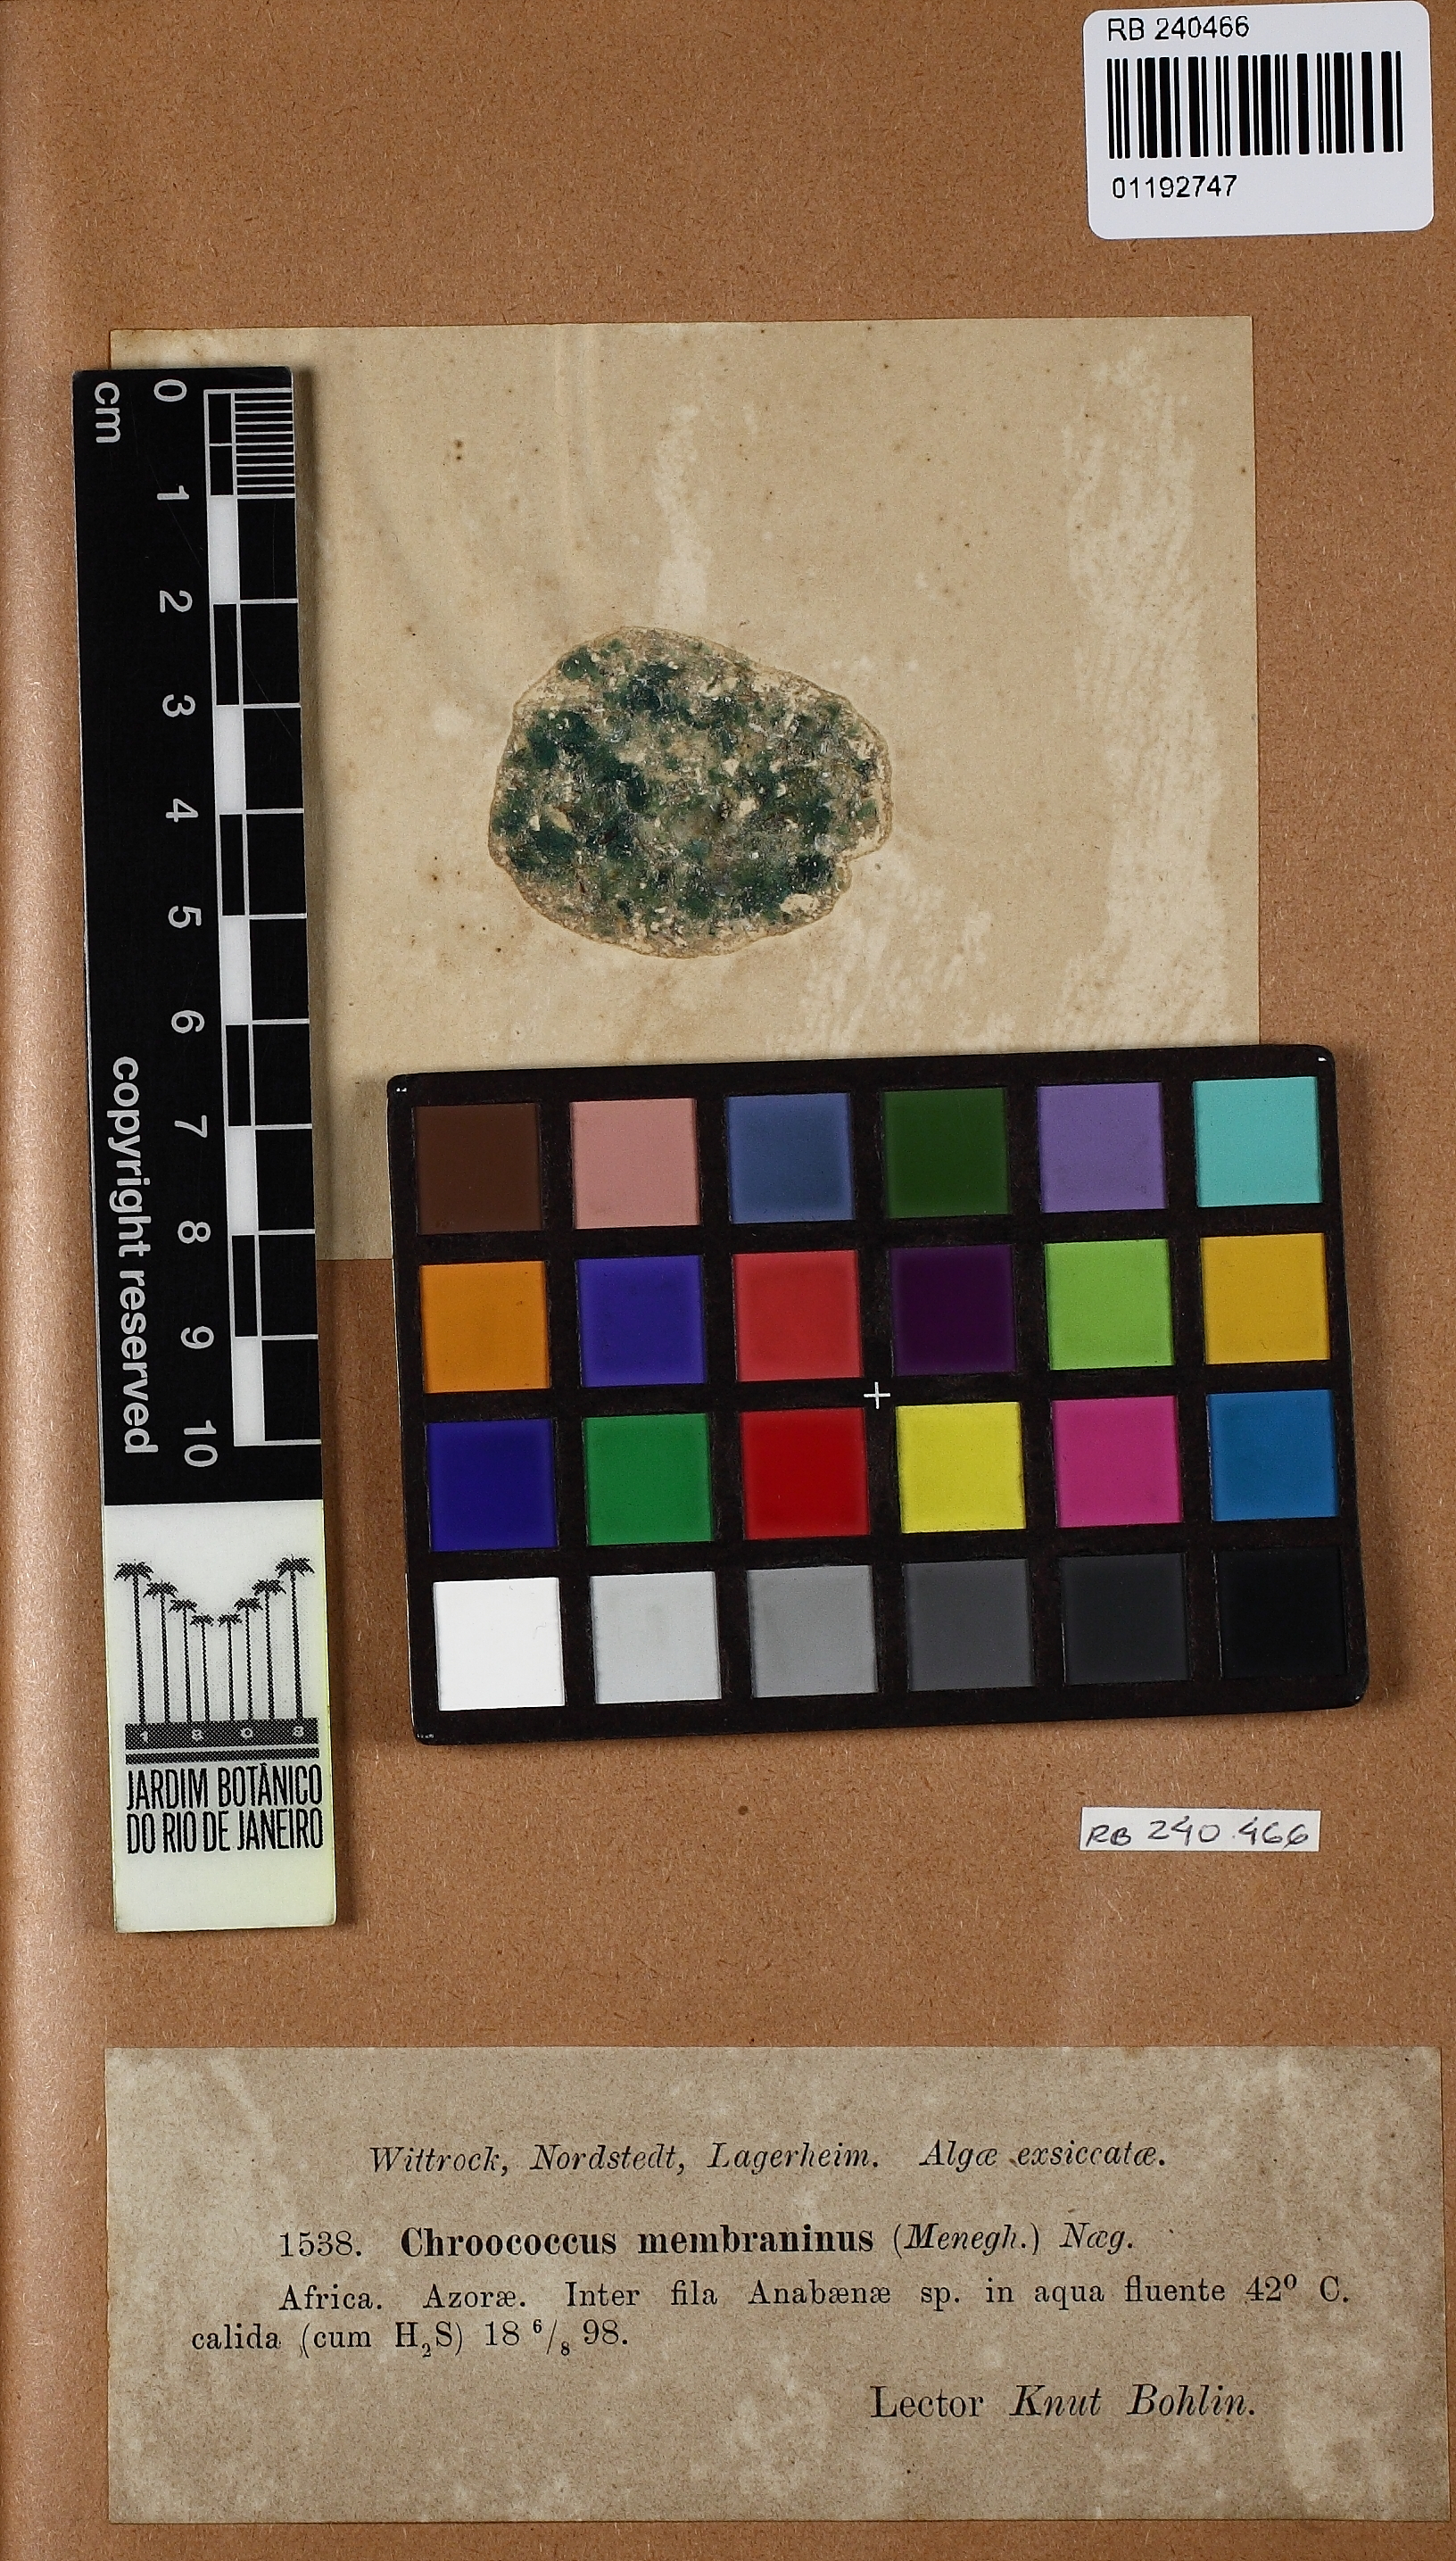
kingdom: Bacteria
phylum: Cyanobacteria
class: Cyanobacteriia
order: Cyanobacteriales
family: Microcystaceae
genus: Chroococcus
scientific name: Chroococcus membraninus
